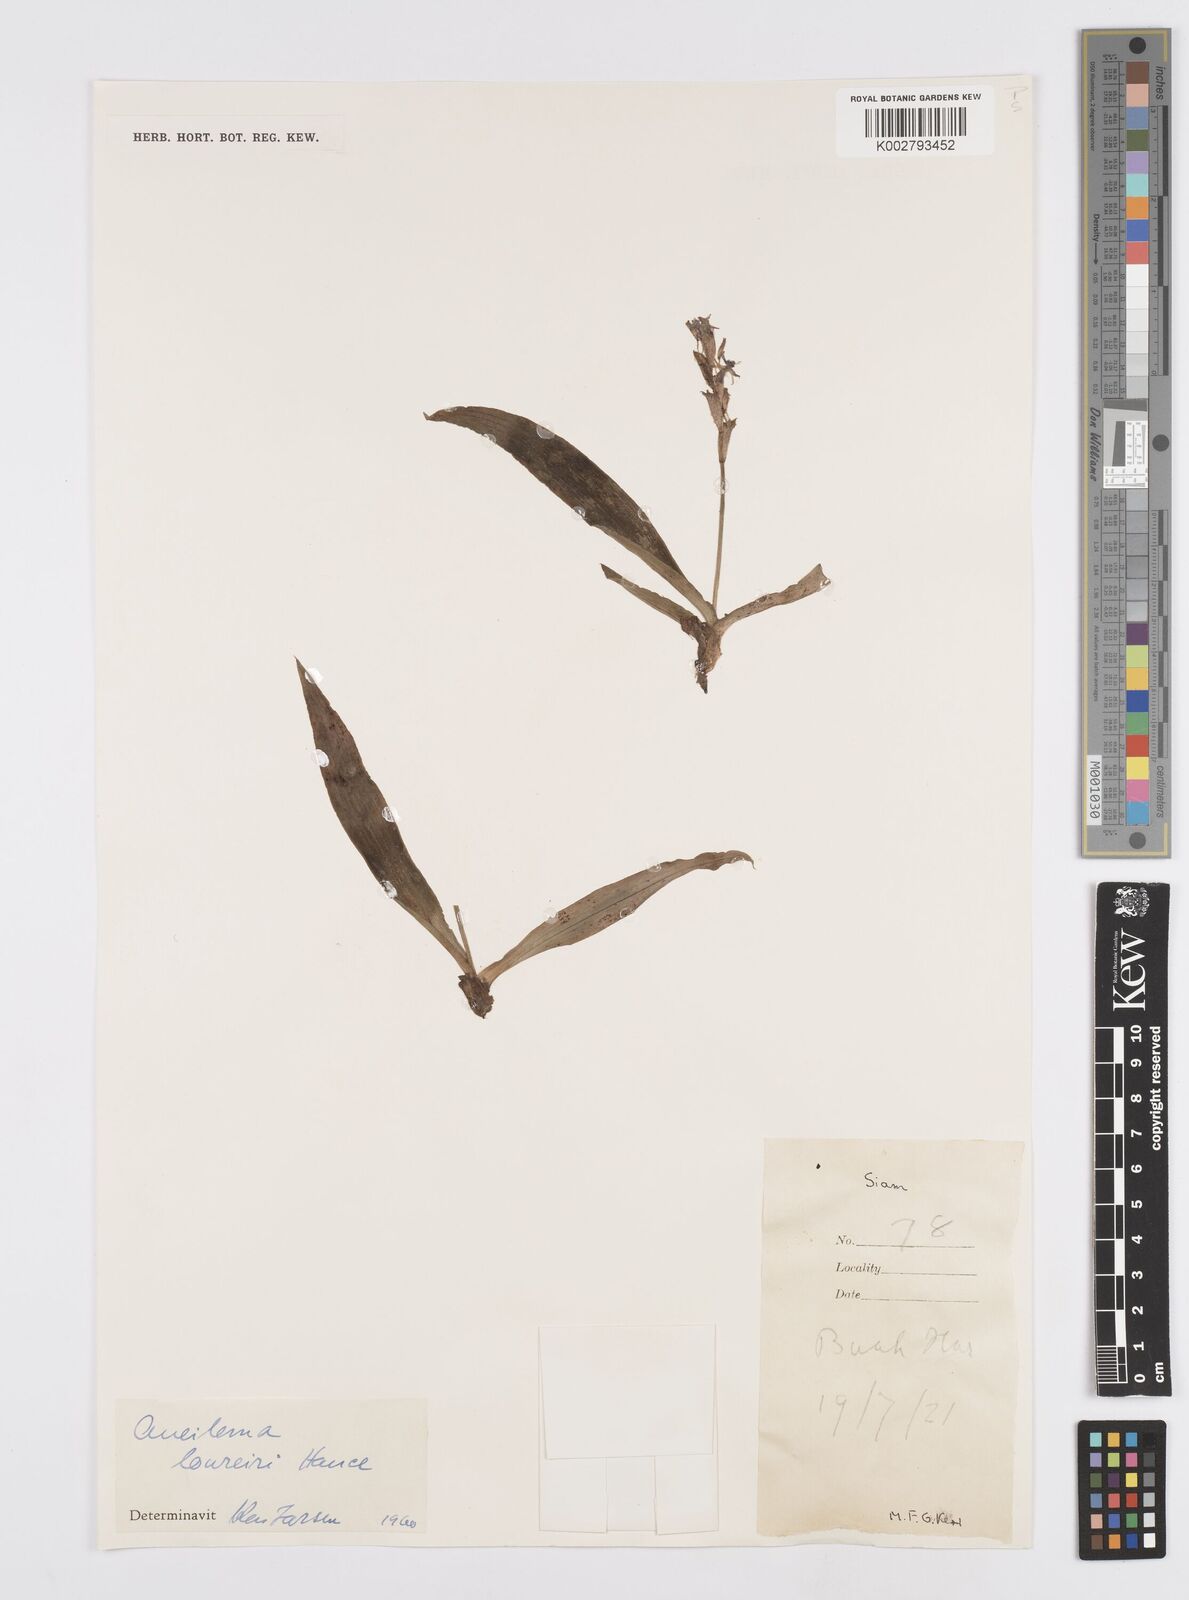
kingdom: Plantae
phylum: Tracheophyta
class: Liliopsida
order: Commelinales
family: Commelinaceae
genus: Murdannia
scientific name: Murdannia edulis
